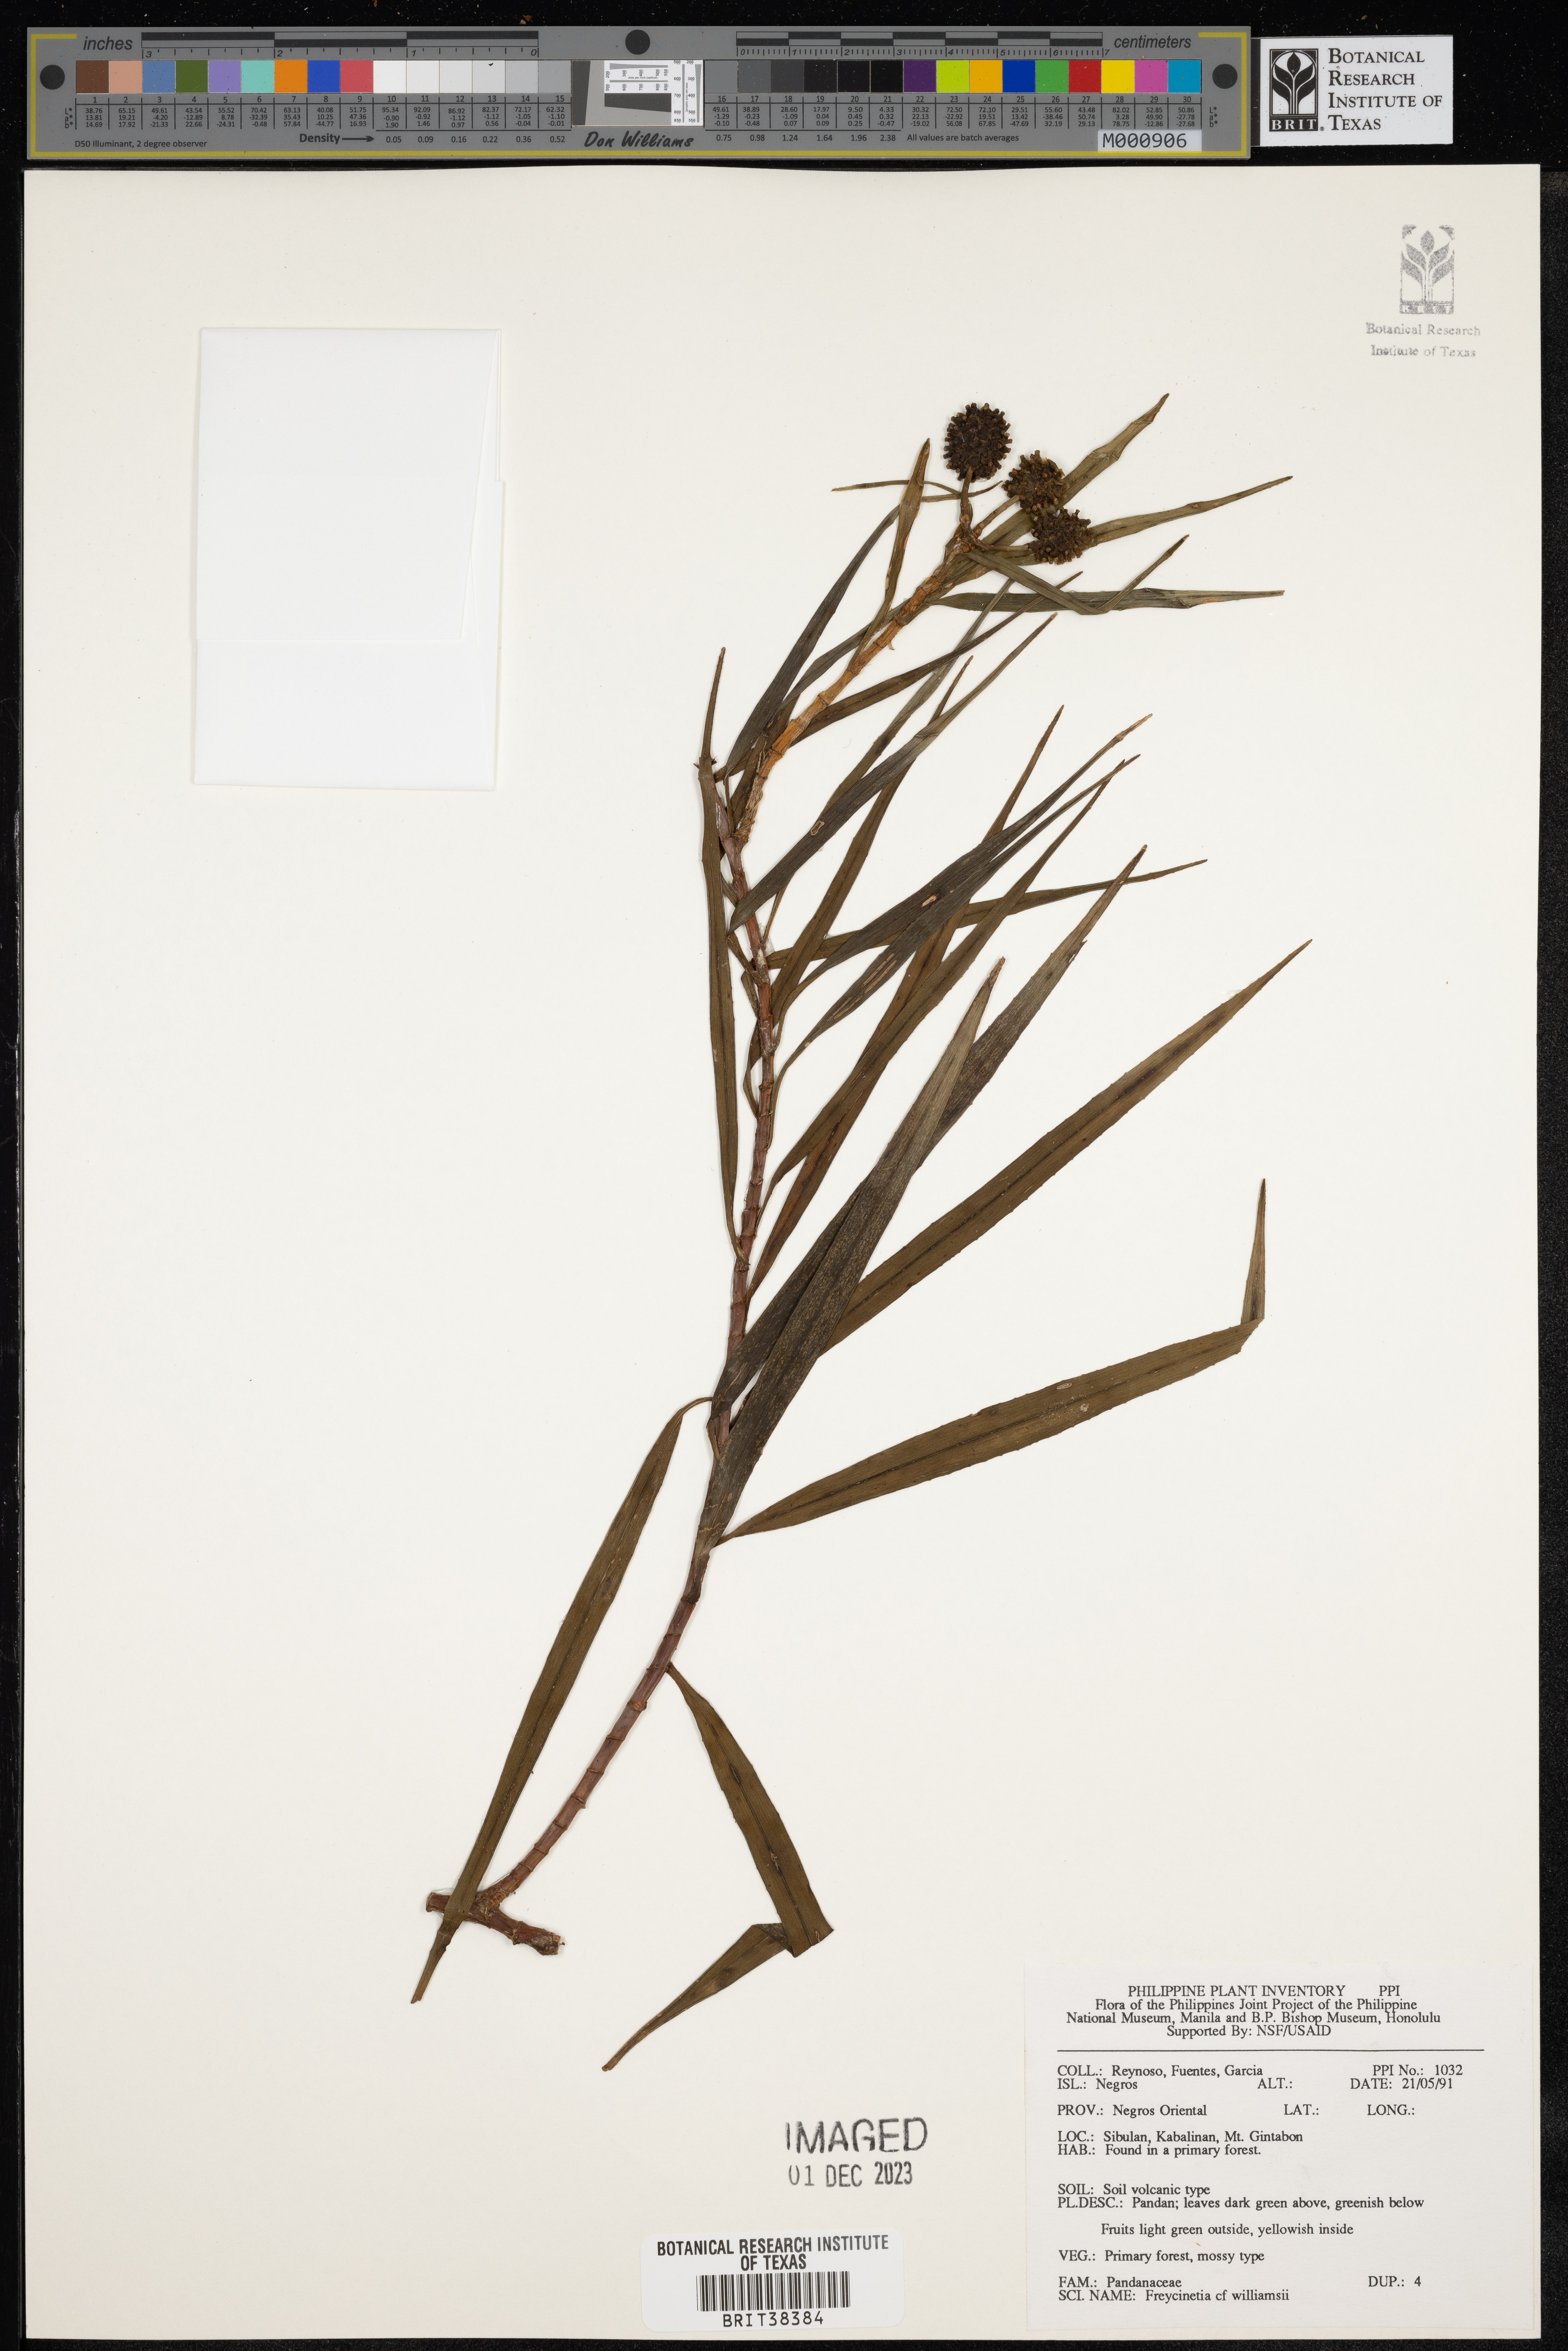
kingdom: Plantae
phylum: Tracheophyta
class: Liliopsida
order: Pandanales
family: Pandanaceae
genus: Freycinetia
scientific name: Freycinetia williamsii
